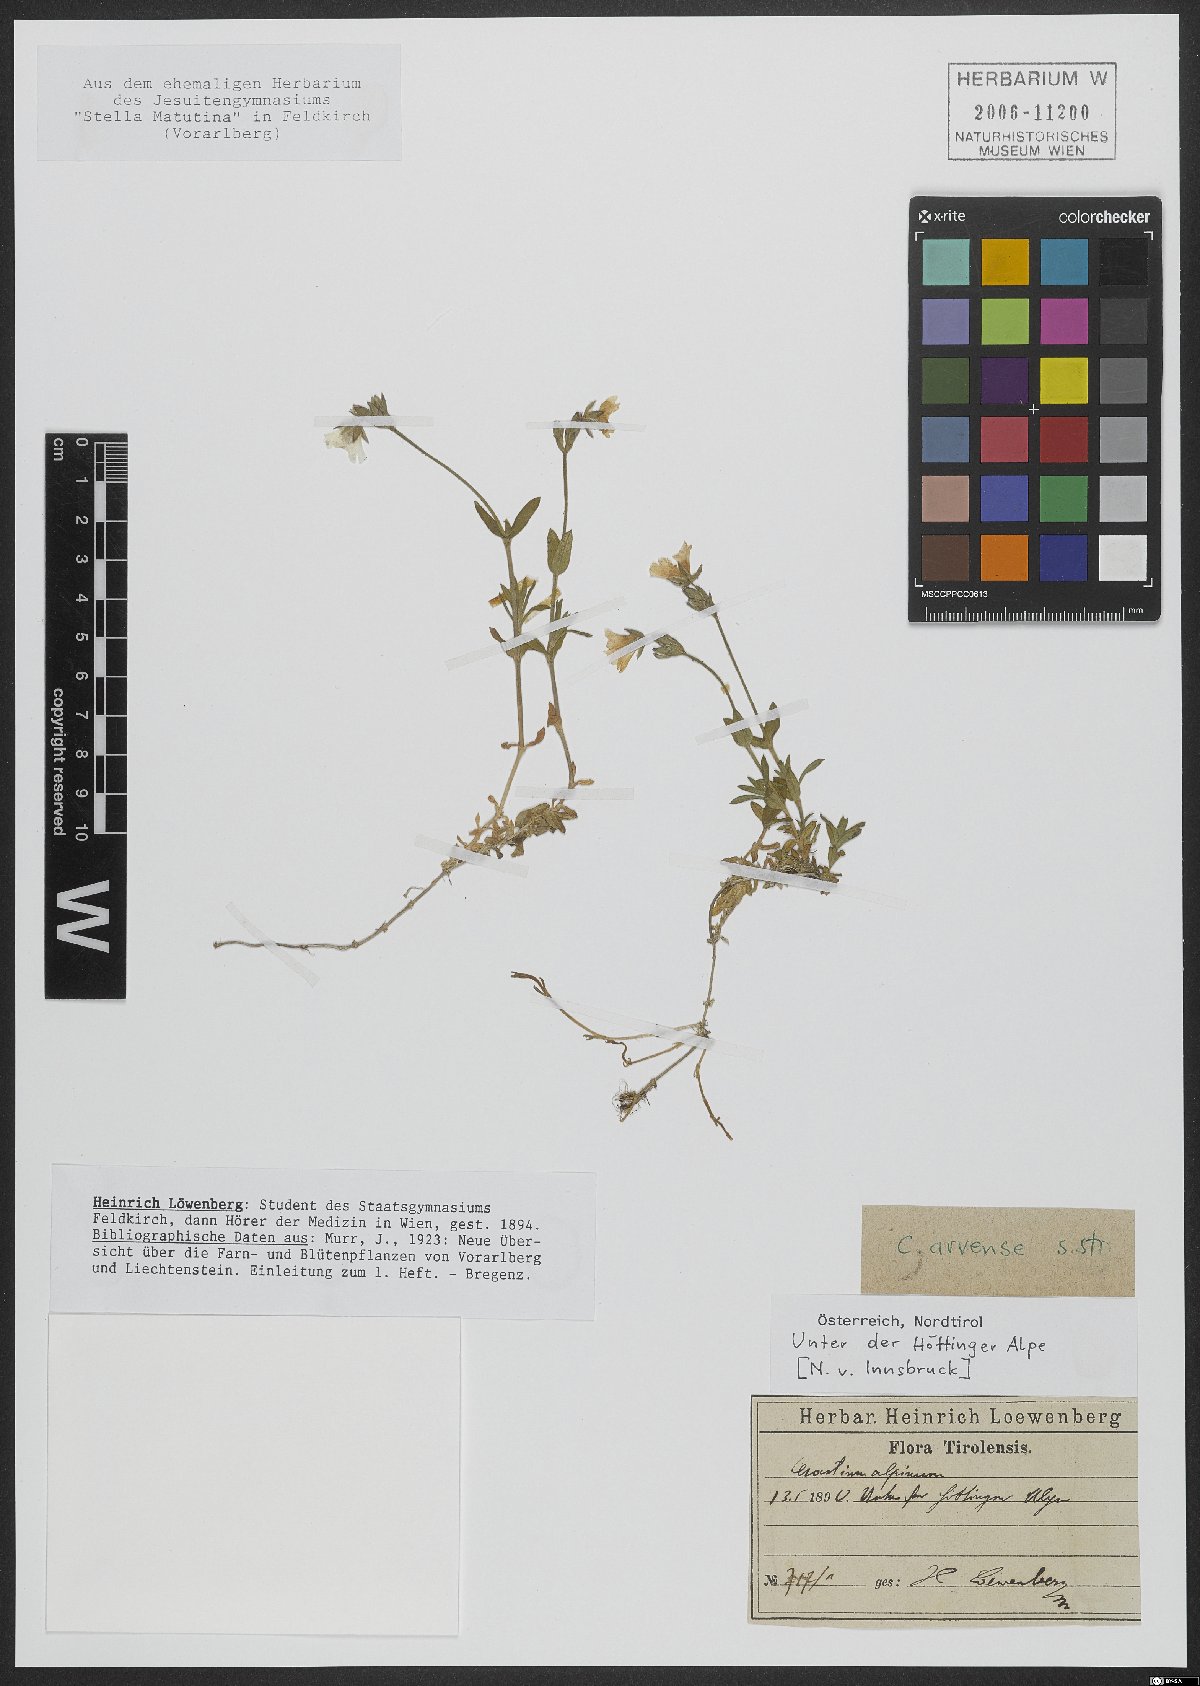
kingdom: Plantae
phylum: Tracheophyta
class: Magnoliopsida
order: Caryophyllales
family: Caryophyllaceae
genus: Cerastium
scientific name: Cerastium arvense
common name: Field mouse-ear
